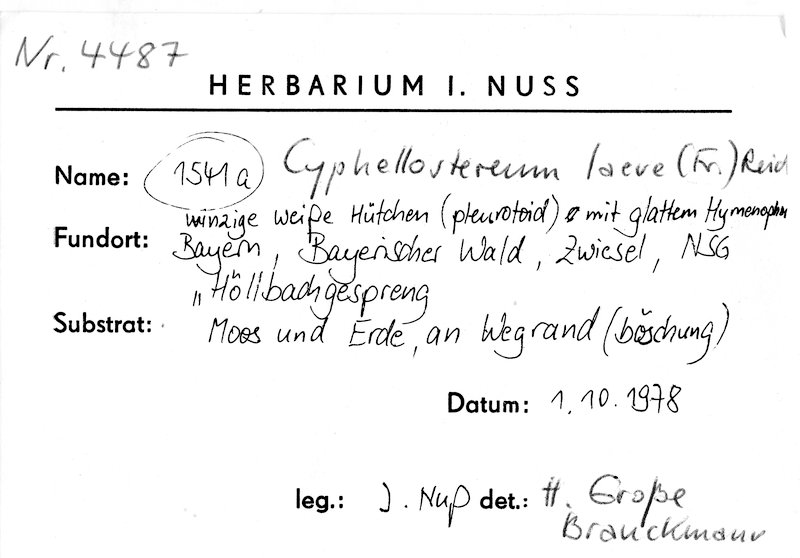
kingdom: Fungi
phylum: Basidiomycota
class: Agaricomycetes
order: Hymenochaetales
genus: Muscinupta
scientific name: Muscinupta laevis
